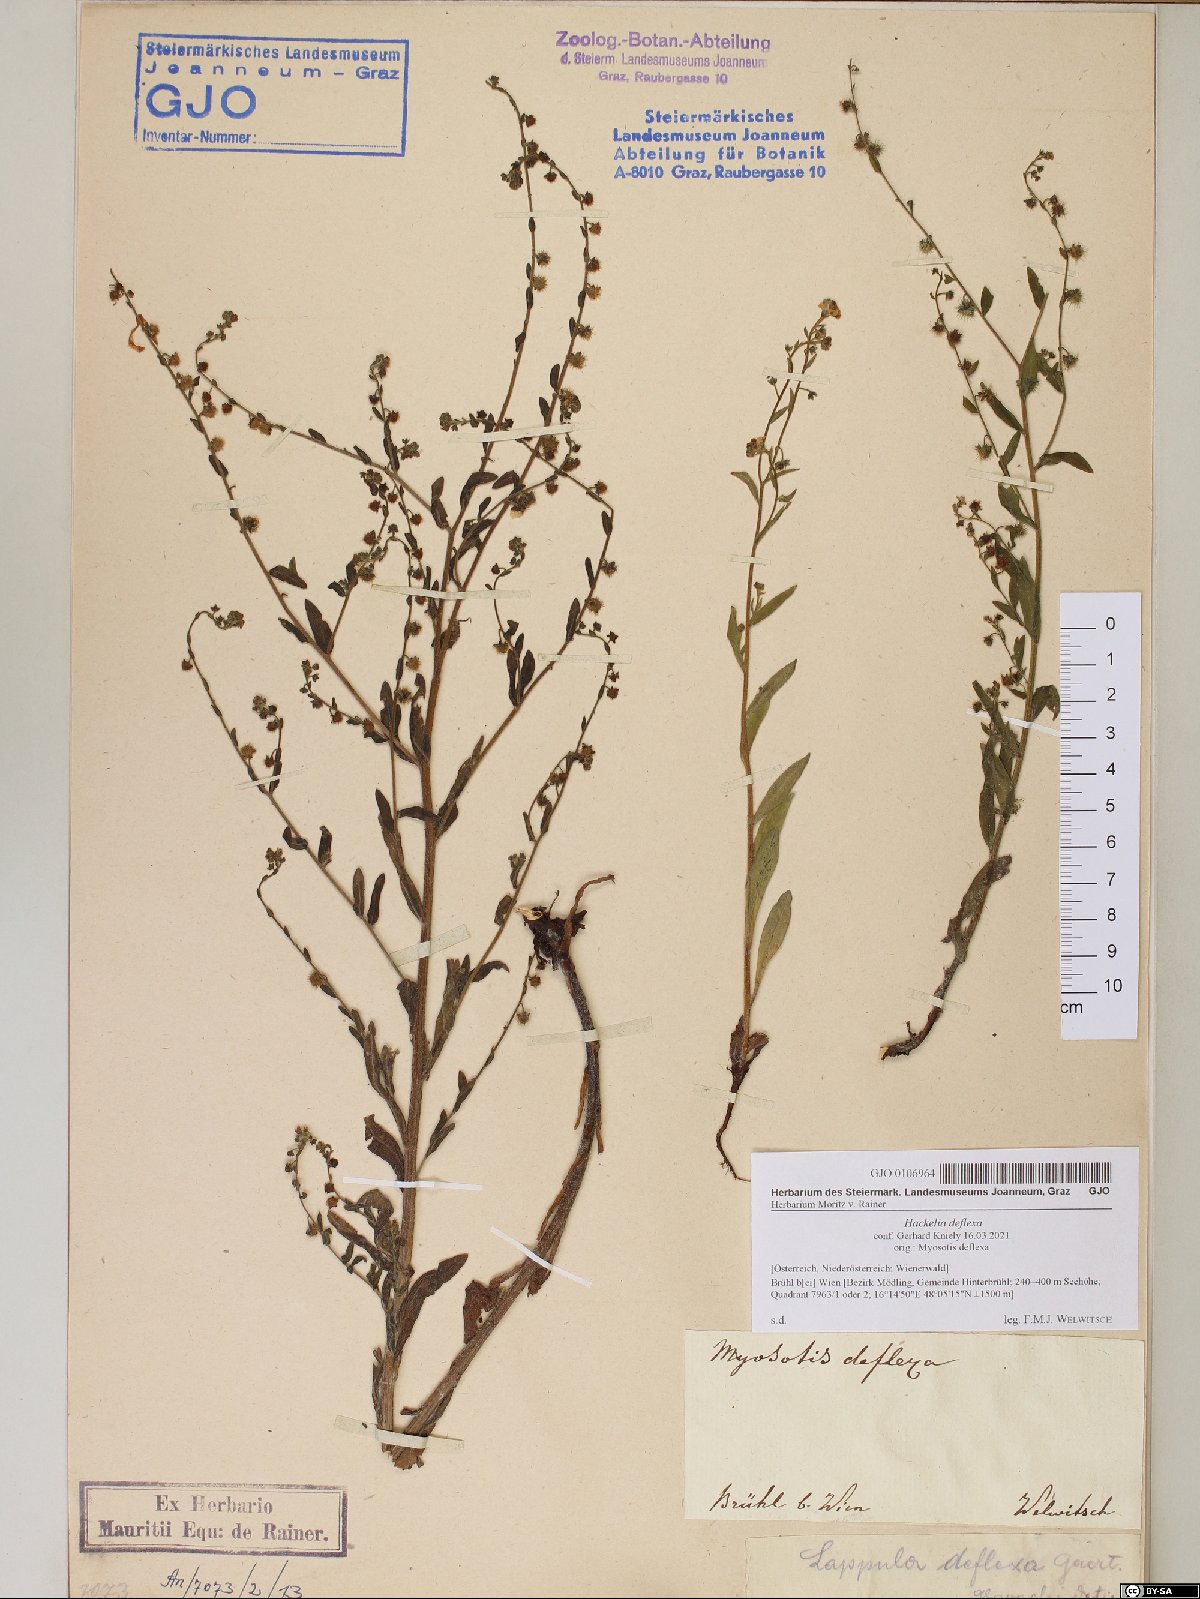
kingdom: Plantae
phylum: Tracheophyta
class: Magnoliopsida
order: Boraginales
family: Boraginaceae
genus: Hackelia
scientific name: Hackelia deflexa
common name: Nodding stickseed
